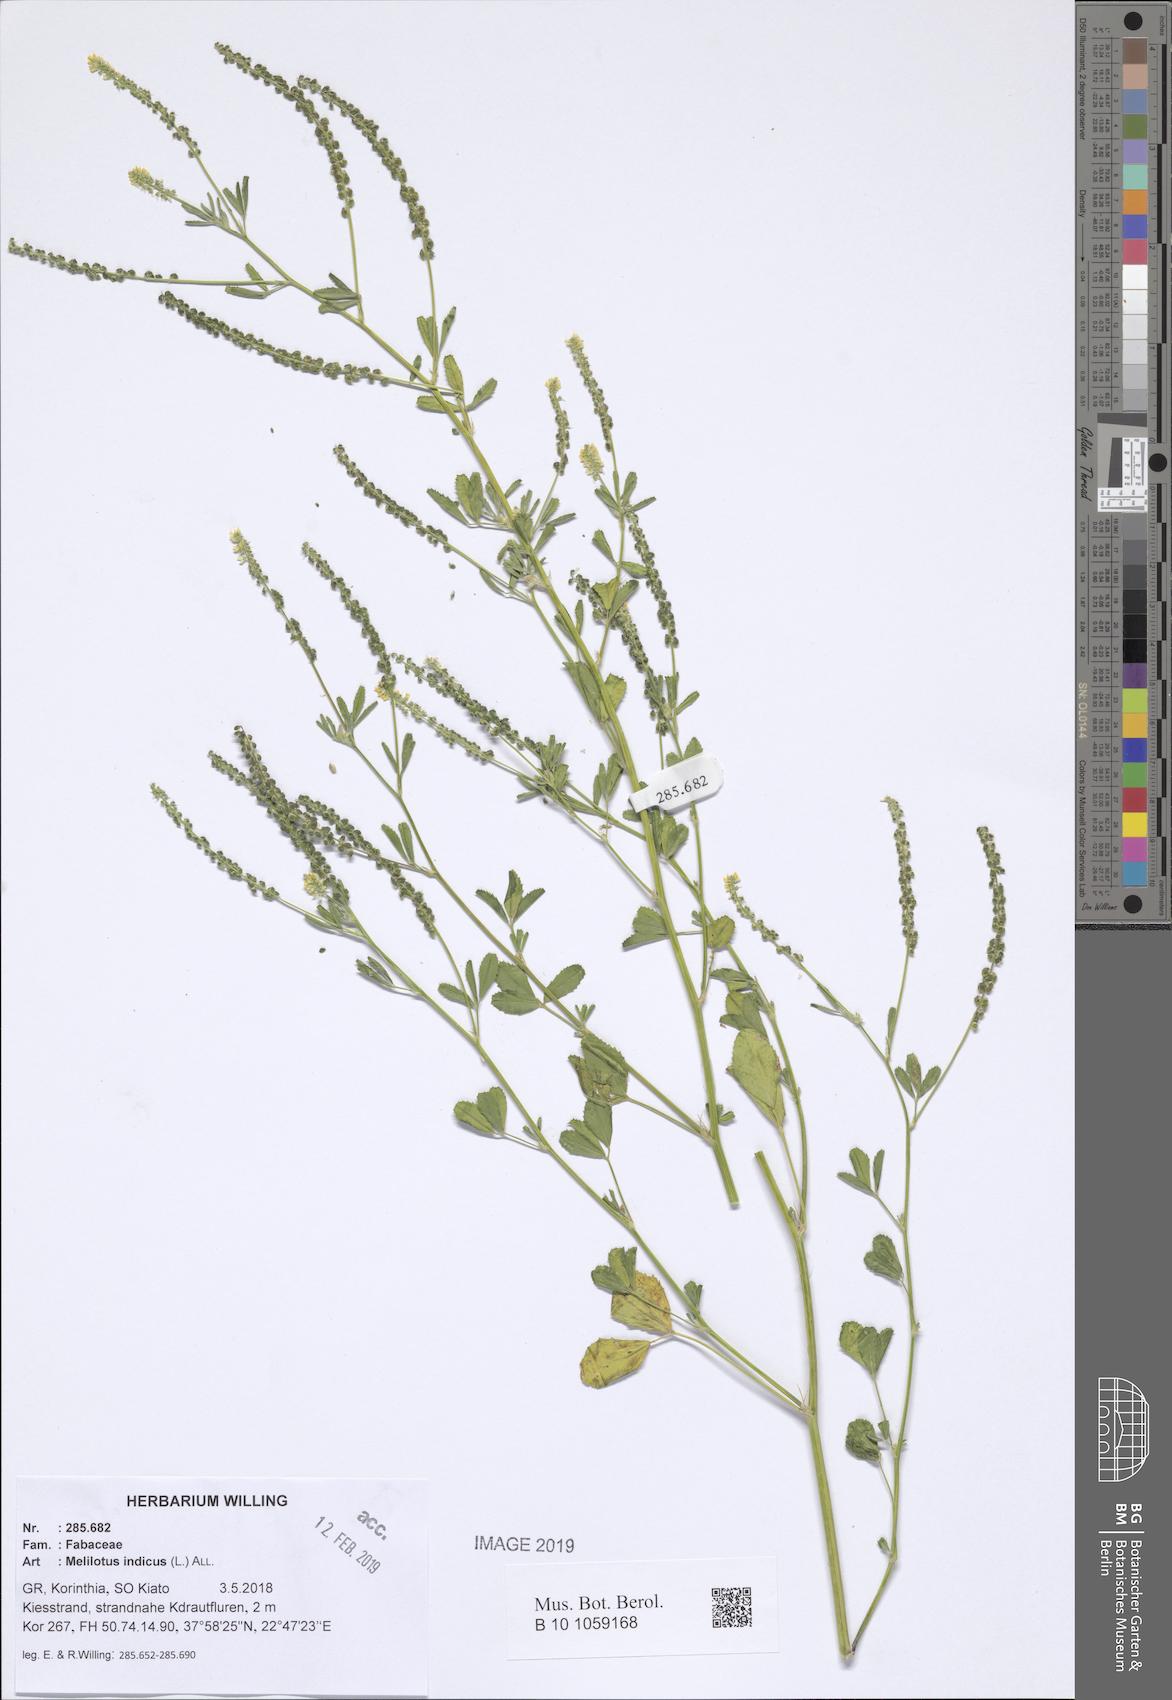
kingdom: Plantae
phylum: Tracheophyta
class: Magnoliopsida
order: Fabales
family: Fabaceae
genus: Melilotus
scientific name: Melilotus indicus
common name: Small melilot
